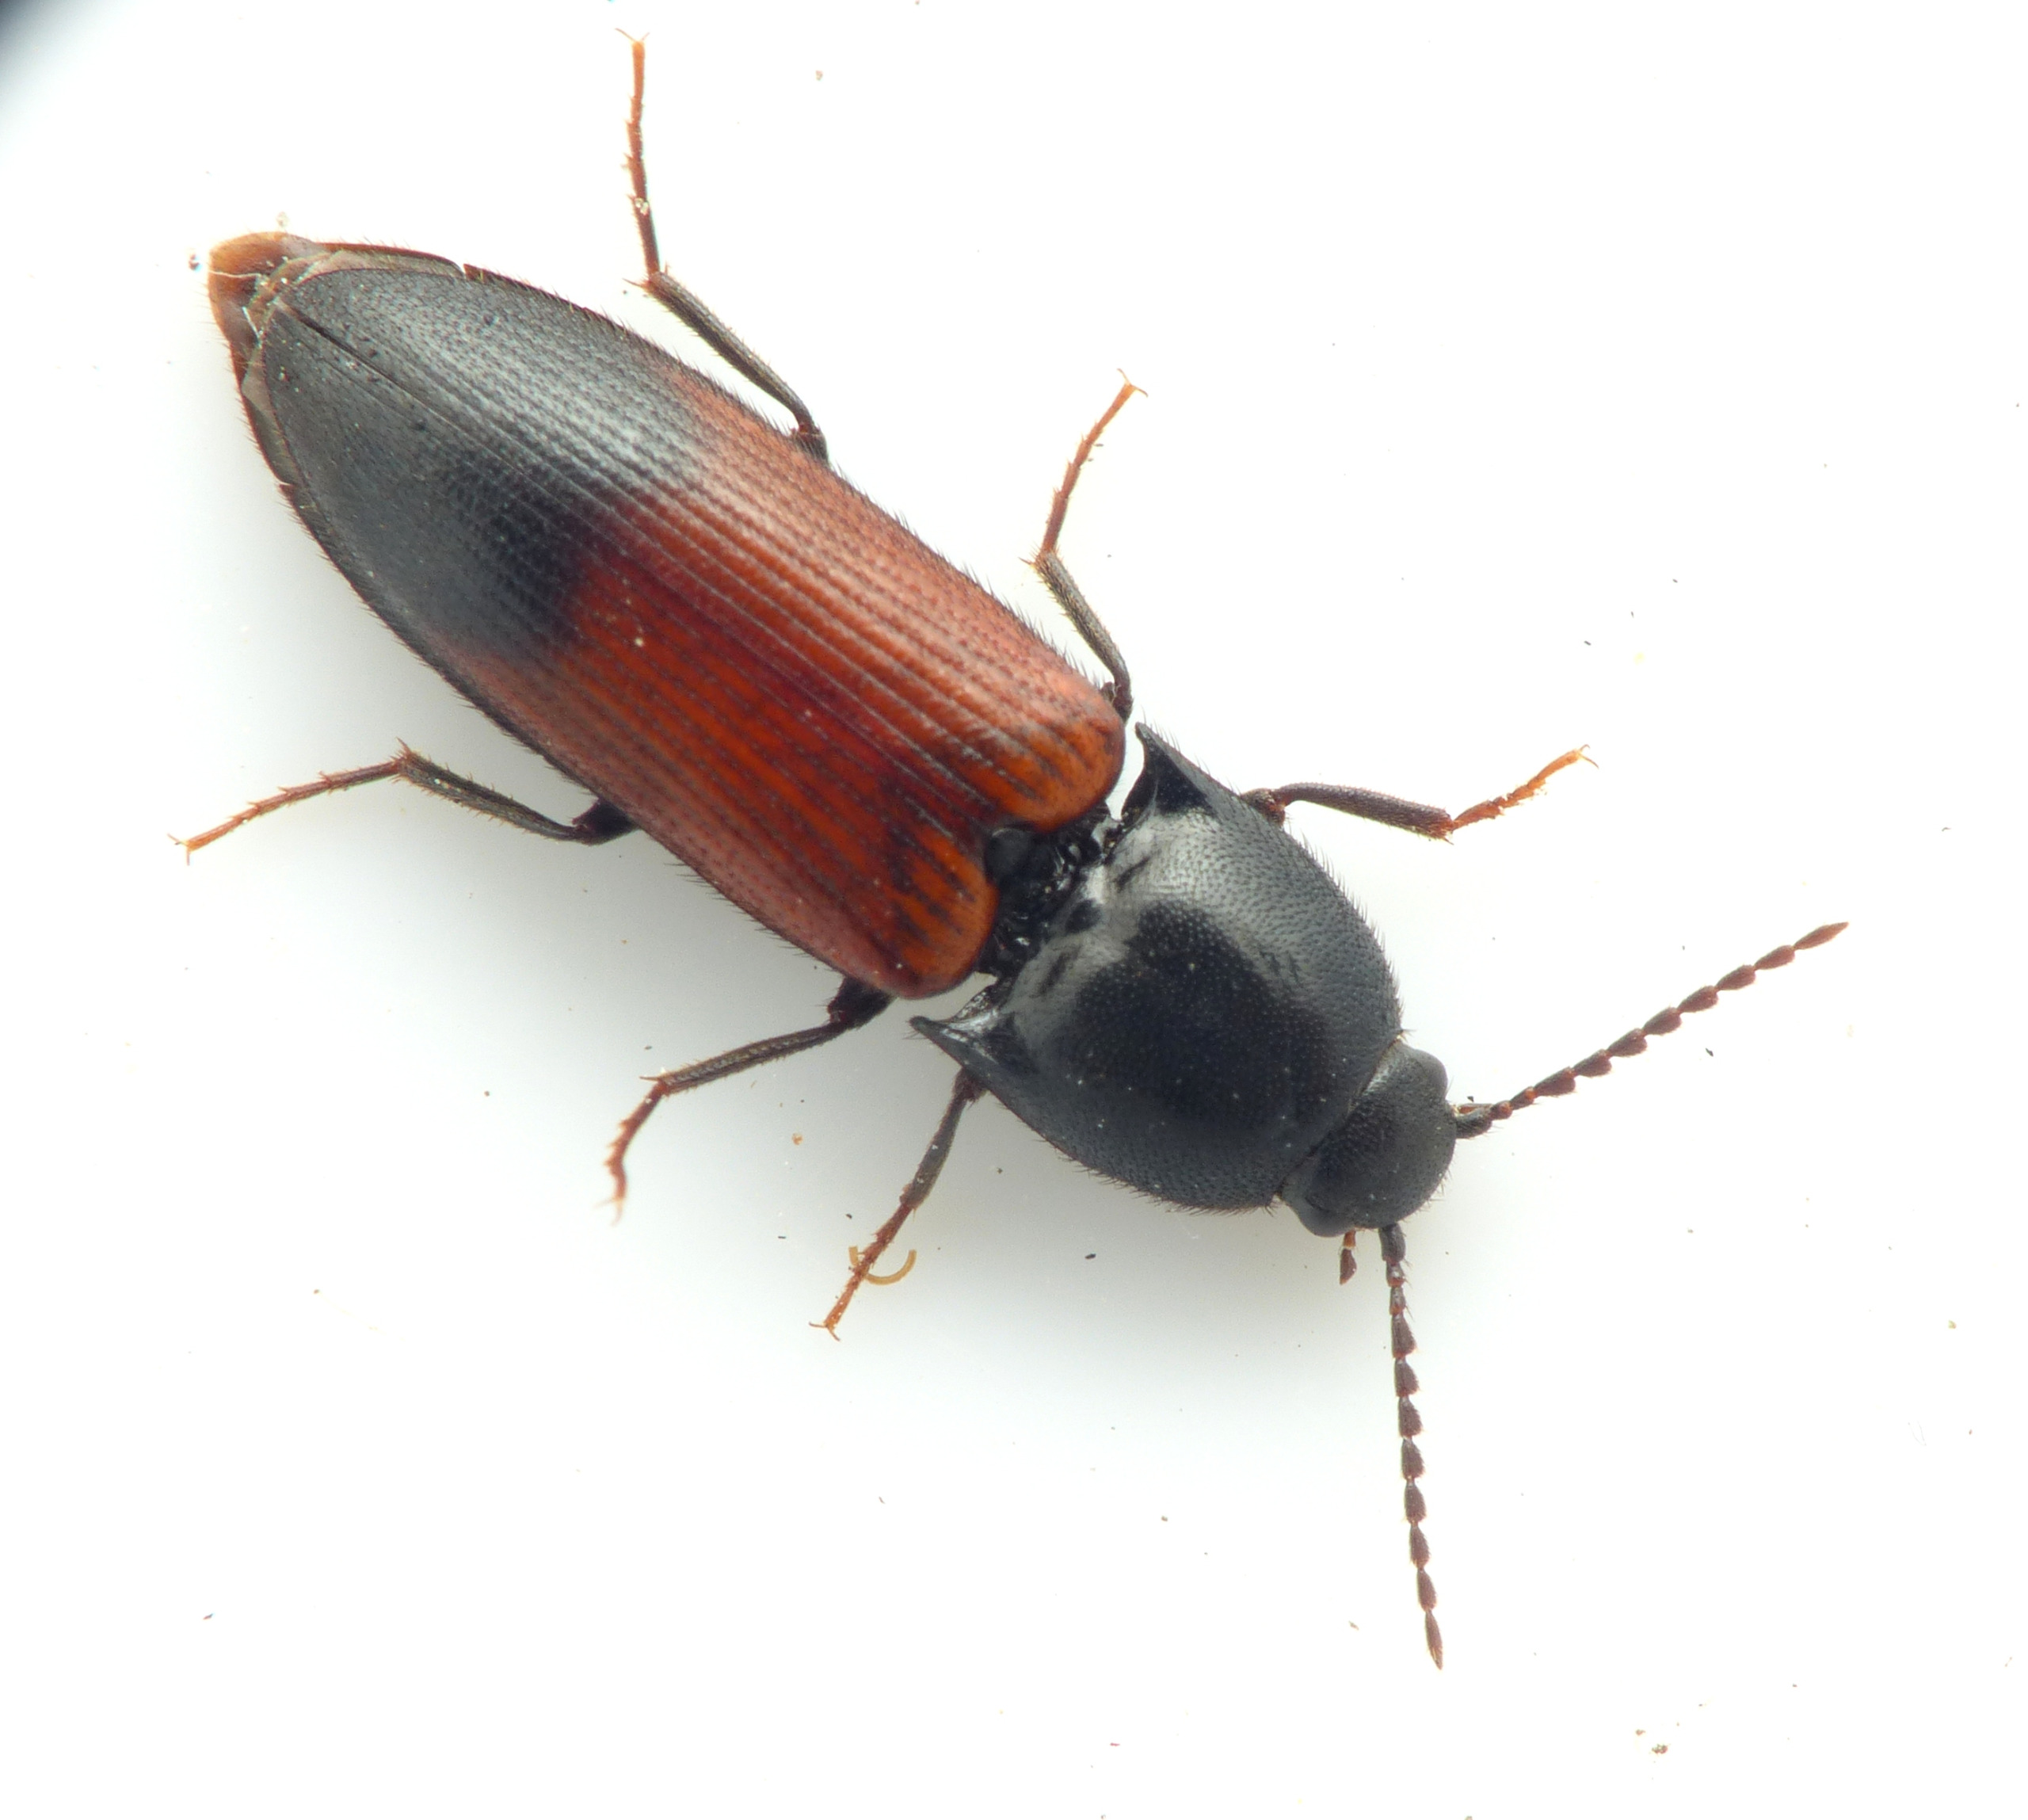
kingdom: Animalia
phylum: Arthropoda
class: Insecta
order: Coleoptera
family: Elateridae
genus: Ampedus
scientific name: Ampedus balteatus
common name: Tvefarvet skovsmælder
